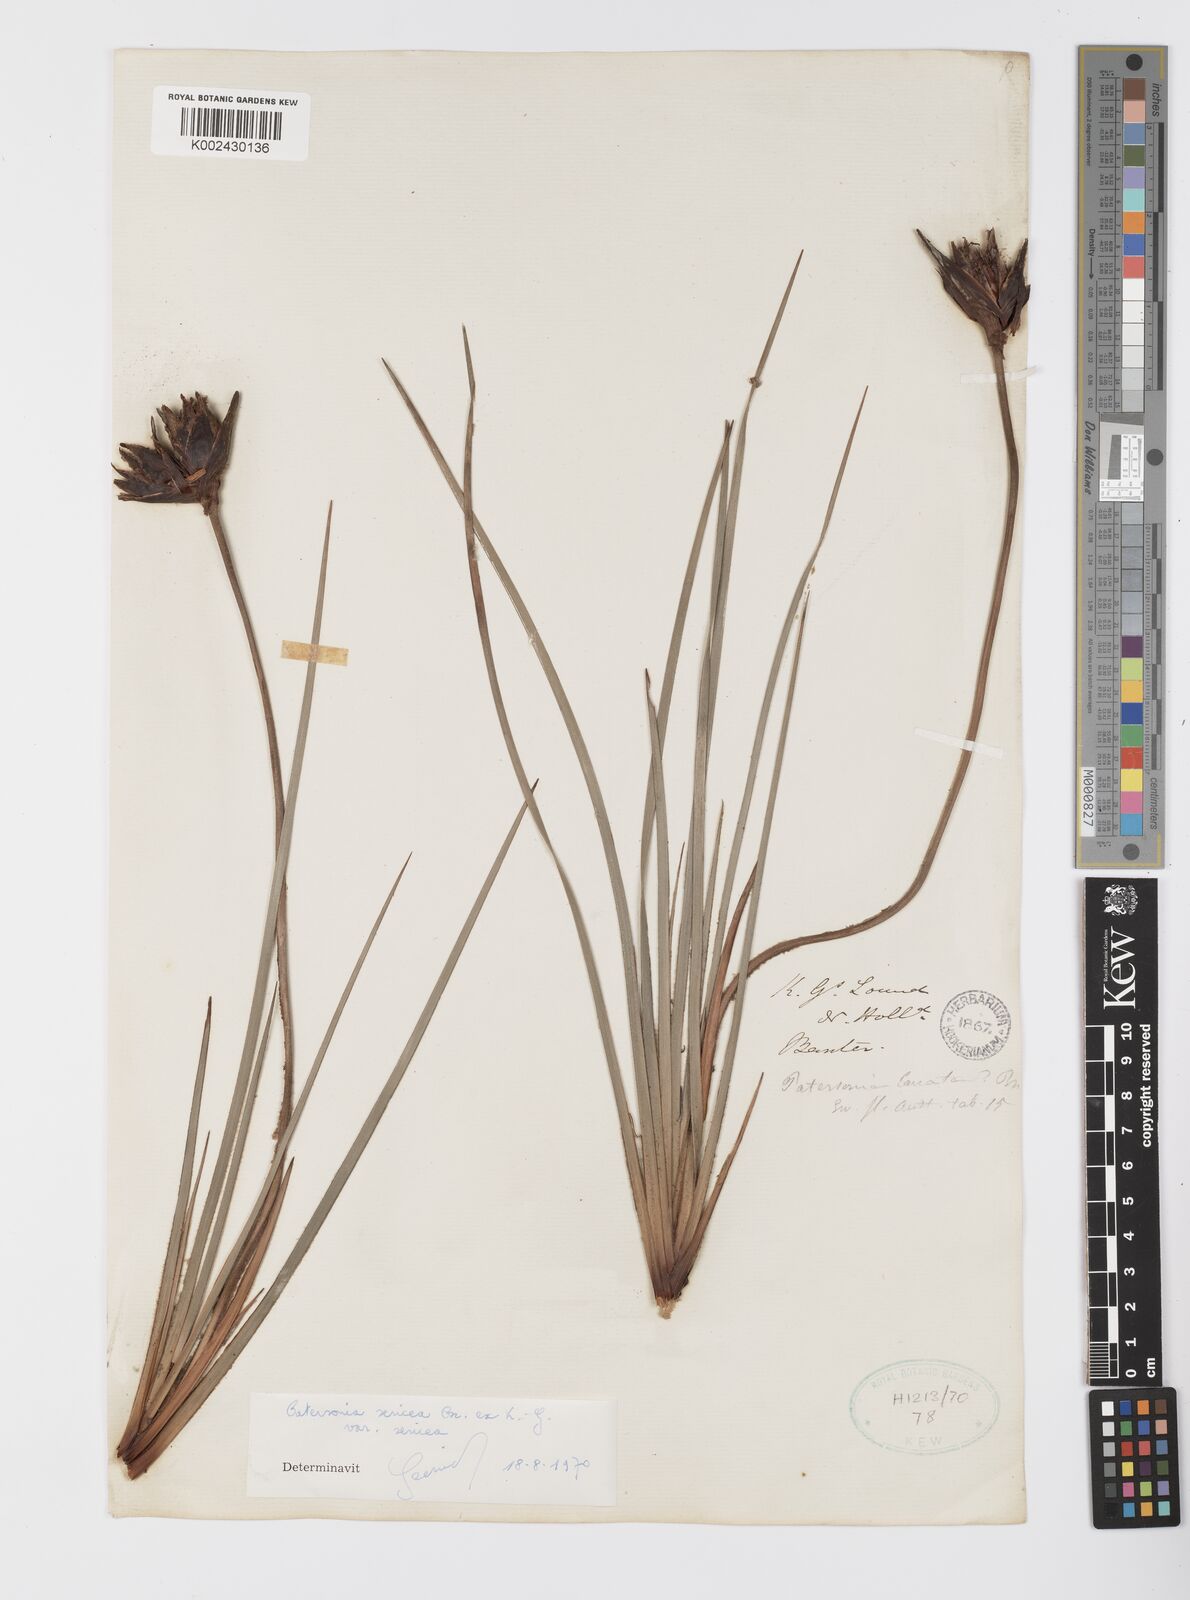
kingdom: Plantae
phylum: Tracheophyta
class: Liliopsida
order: Asparagales
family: Iridaceae
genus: Patersonia
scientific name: Patersonia sericea
